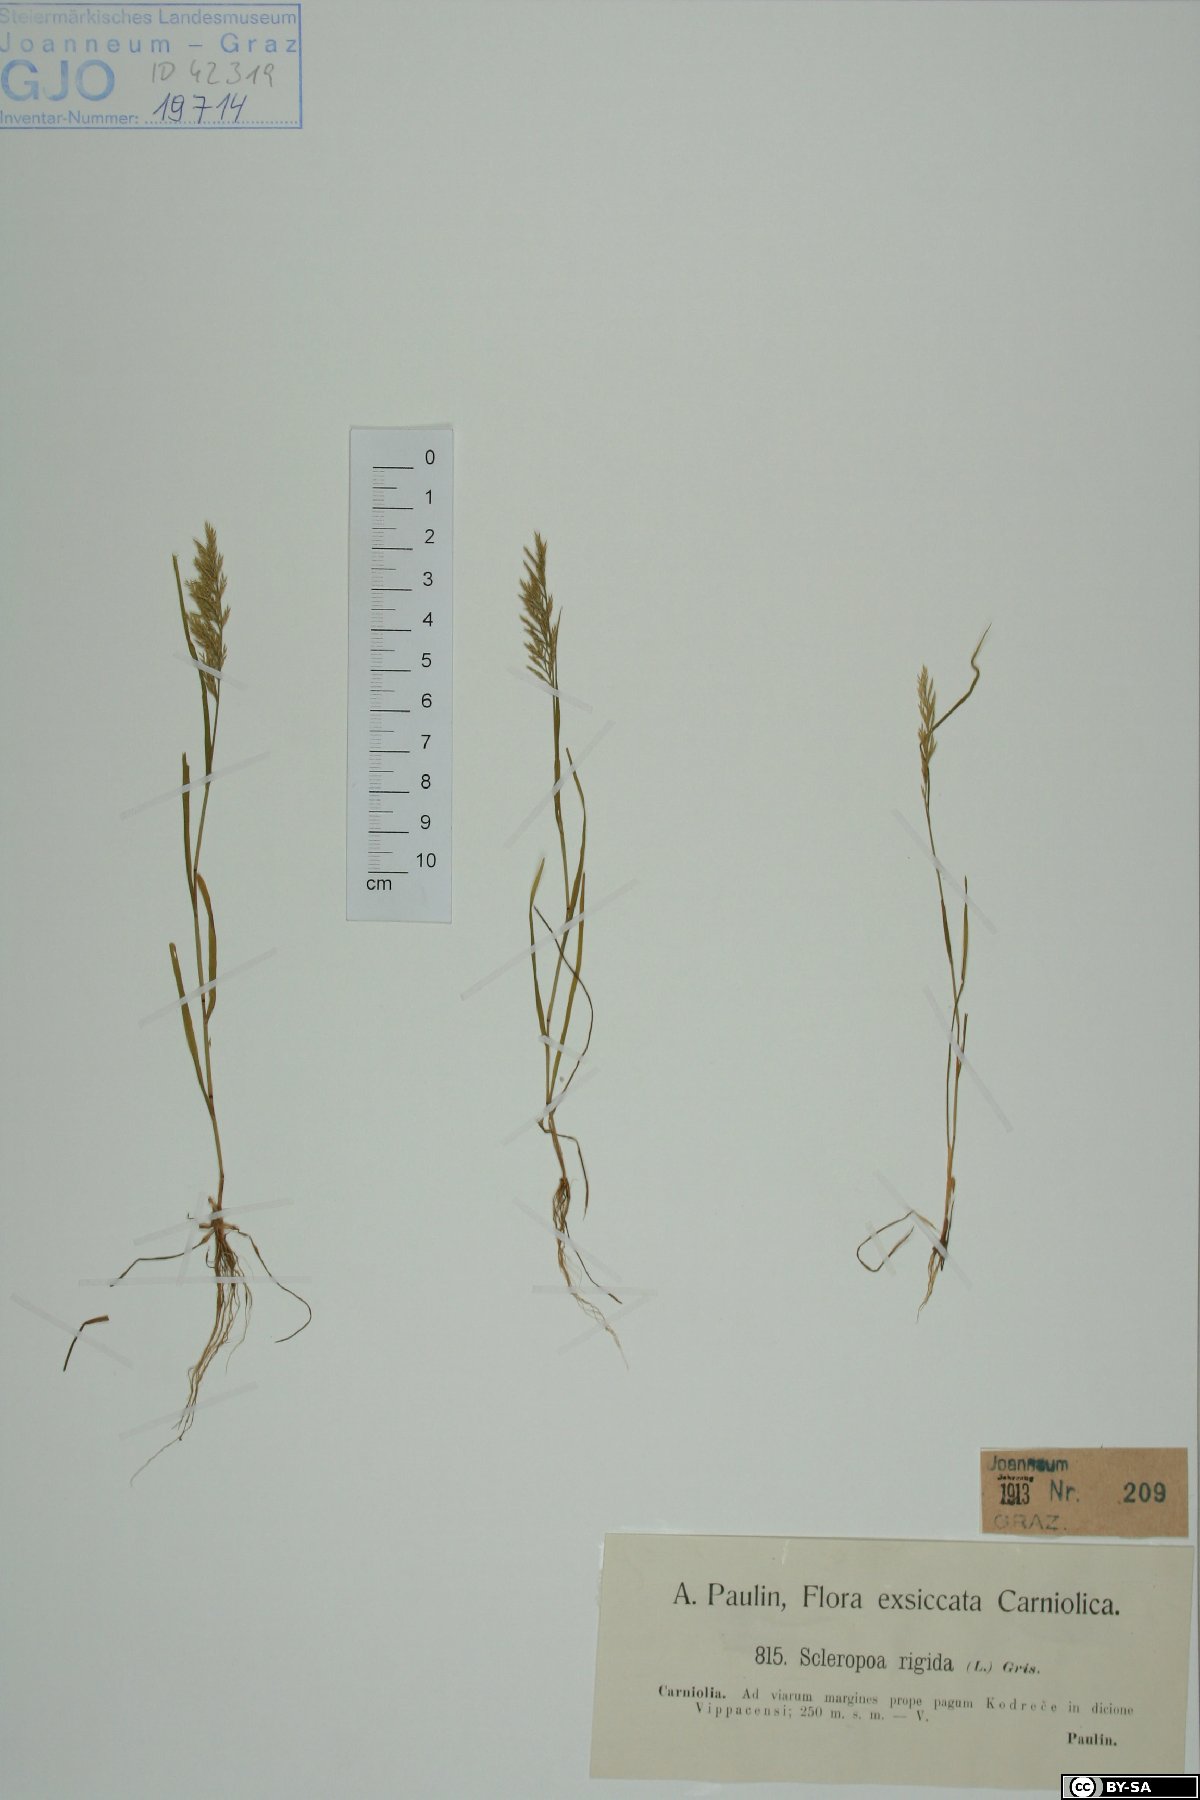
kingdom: Plantae
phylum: Tracheophyta
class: Liliopsida
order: Poales
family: Poaceae
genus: Catapodium
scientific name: Catapodium rigidum
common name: Fern-grass
